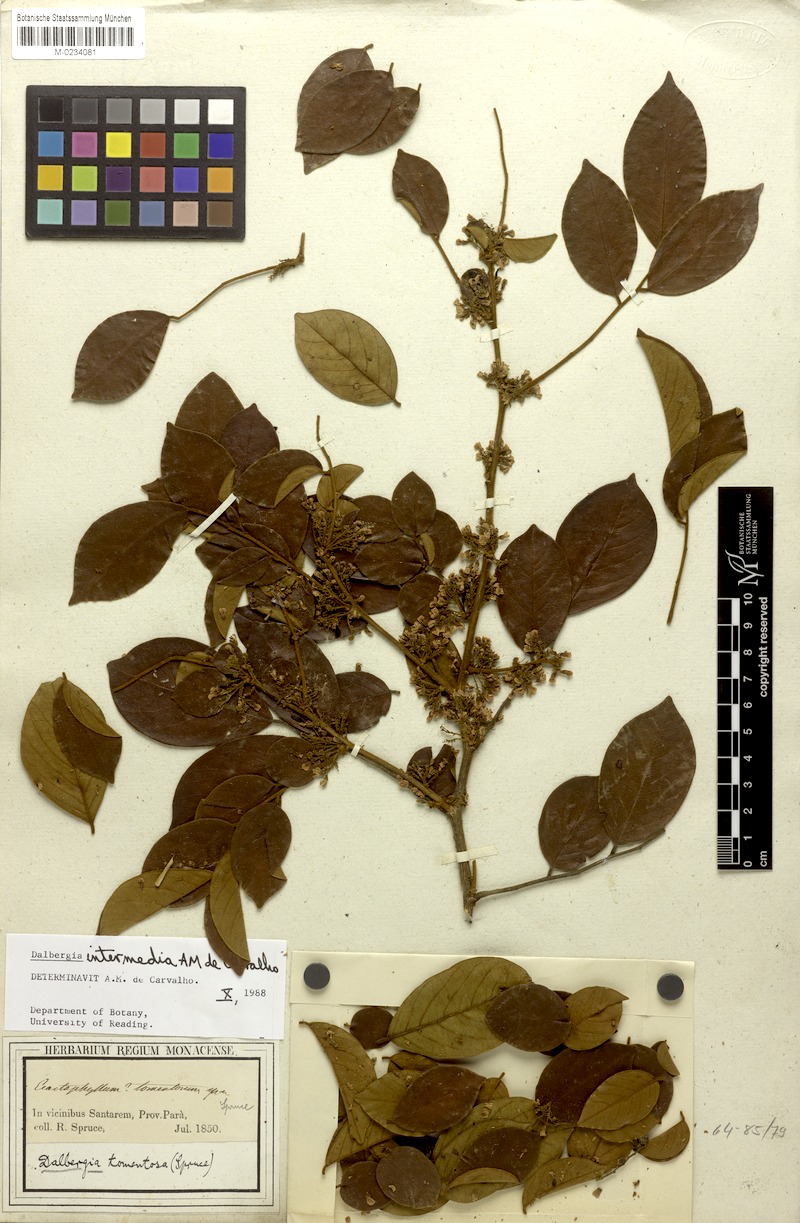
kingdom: Plantae
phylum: Tracheophyta
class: Magnoliopsida
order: Fabales
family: Fabaceae
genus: Dalbergia
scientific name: Dalbergia intermedia
